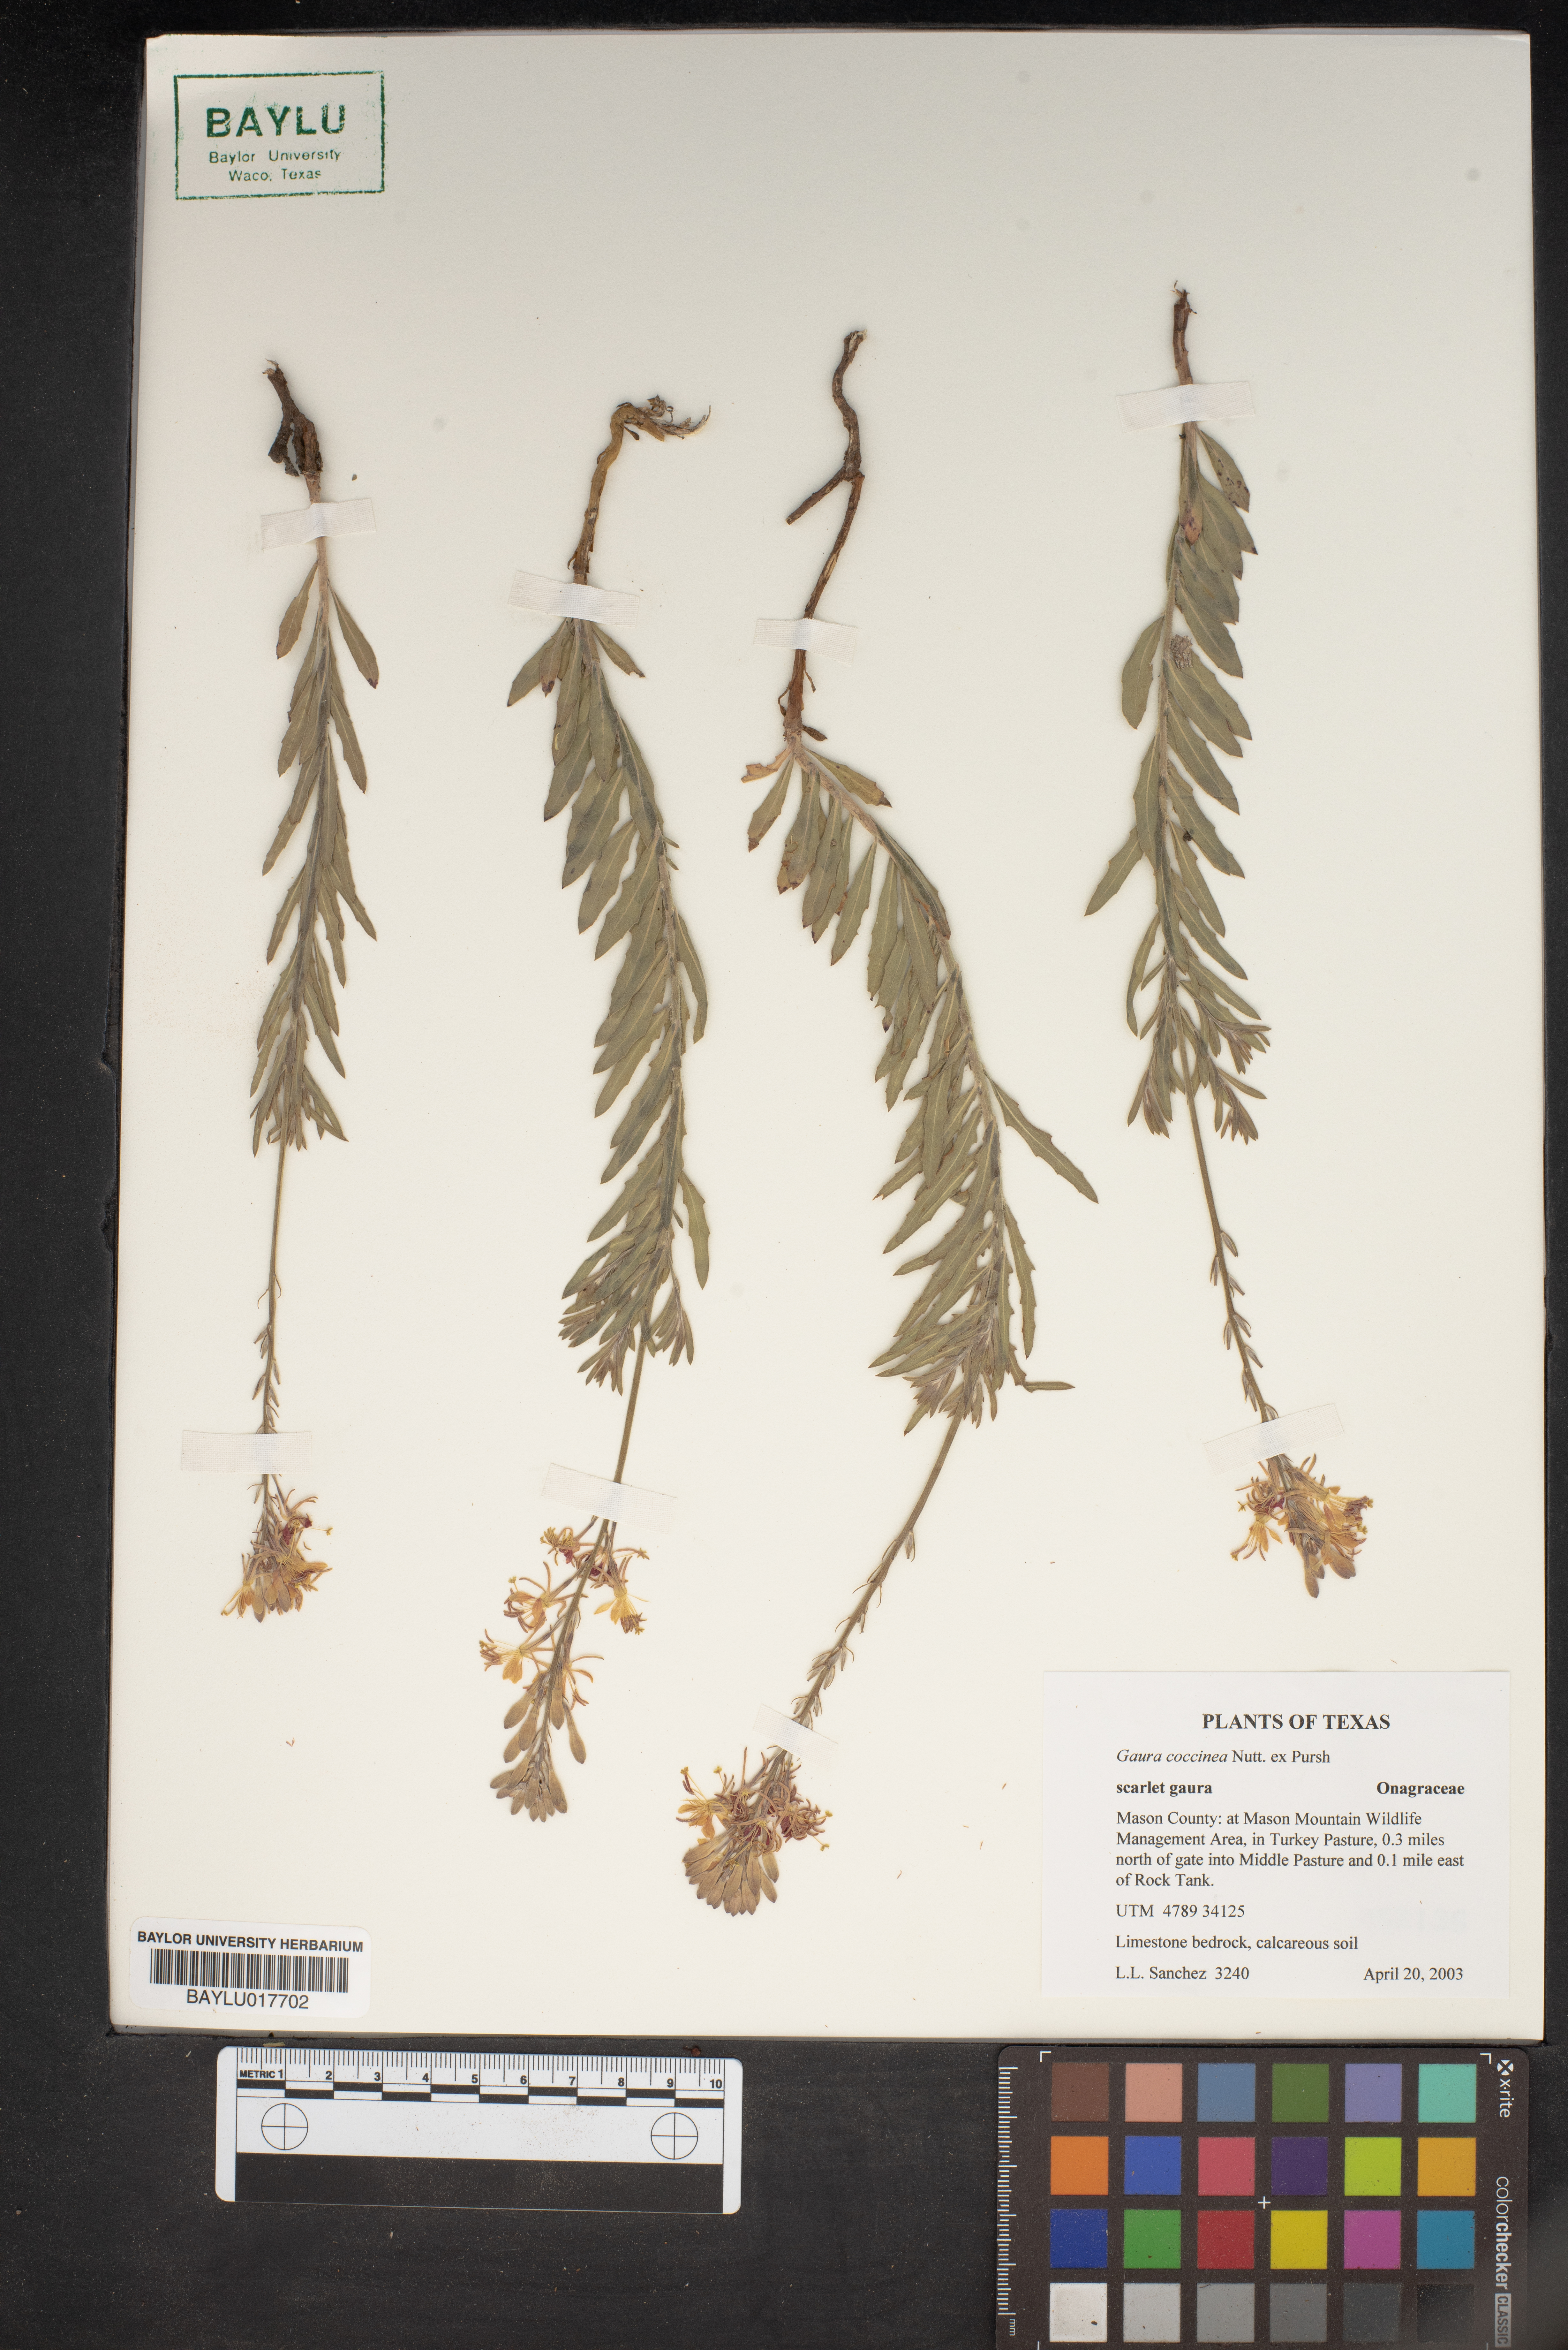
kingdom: Plantae
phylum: Tracheophyta
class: Magnoliopsida
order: Myrtales
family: Onagraceae
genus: Oenothera
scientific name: Oenothera suffrutescens
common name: Scarlet beeblossom
